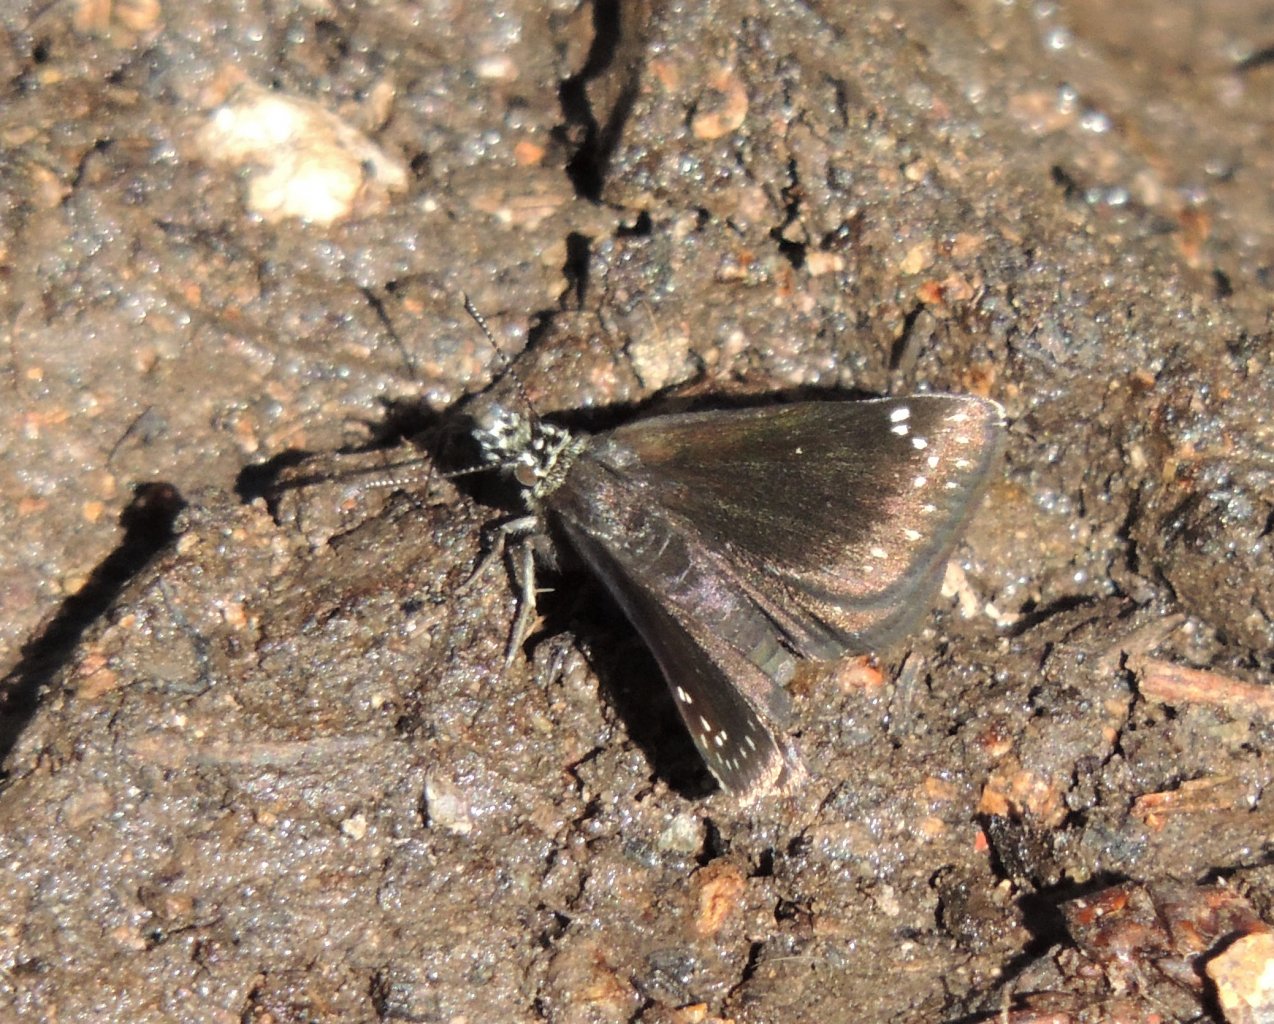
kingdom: Animalia
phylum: Arthropoda
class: Insecta
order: Lepidoptera
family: Hesperiidae
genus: Pholisora
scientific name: Pholisora catullus
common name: Common Sootywing
